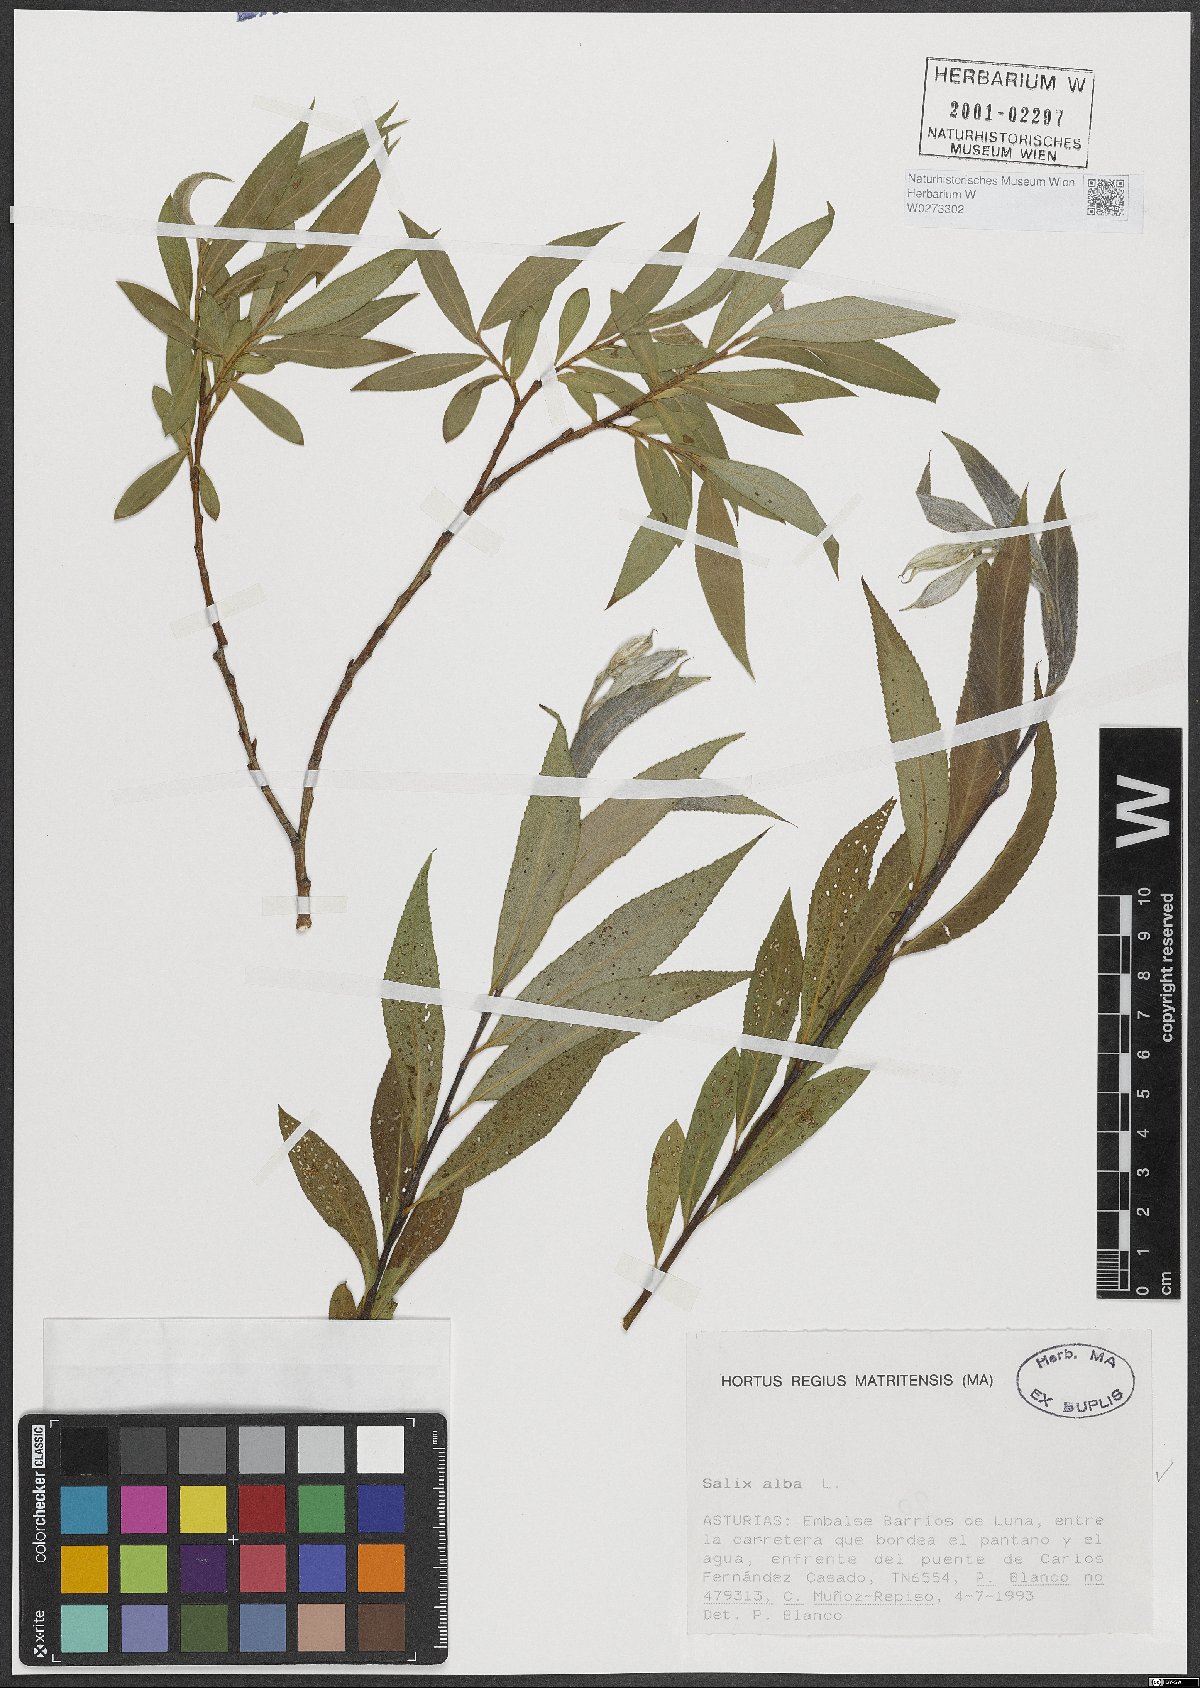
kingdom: Plantae
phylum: Tracheophyta
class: Magnoliopsida
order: Malpighiales
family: Salicaceae
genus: Salix
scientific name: Salix alba
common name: White willow
